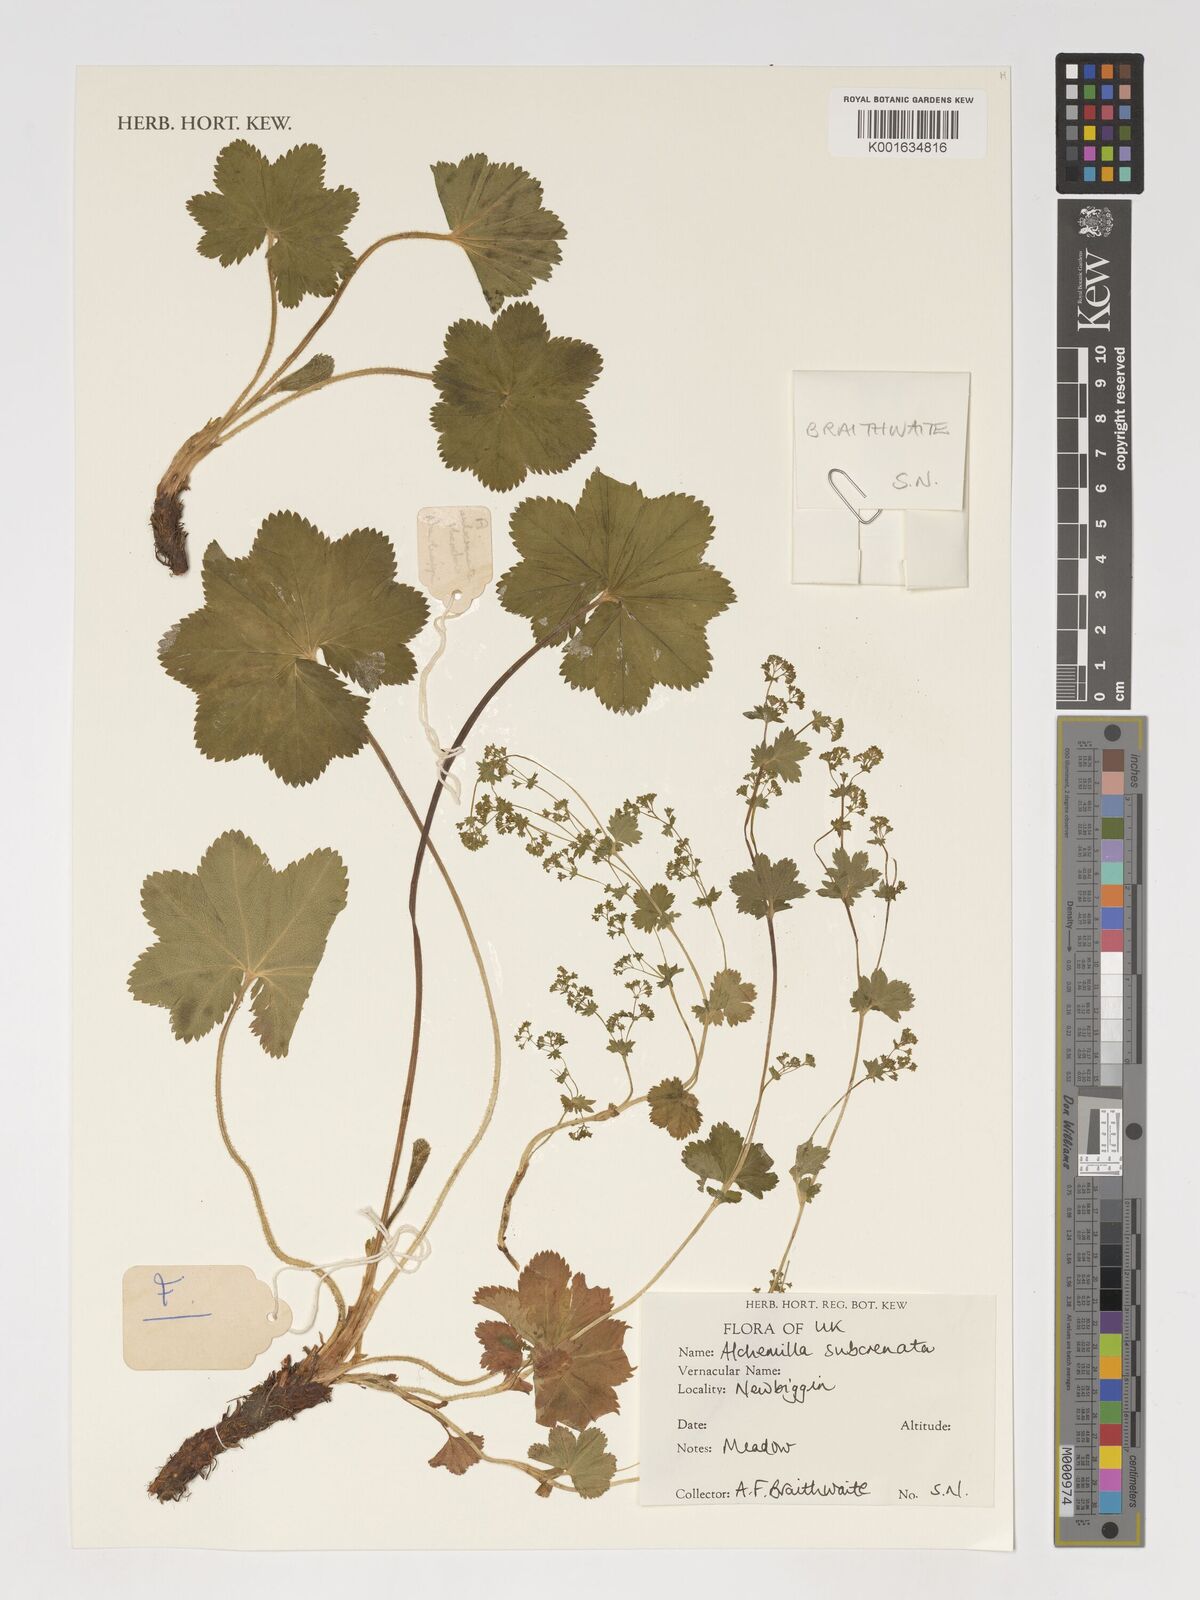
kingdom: Plantae
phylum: Tracheophyta
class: Magnoliopsida
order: Rosales
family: Rosaceae
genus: Alchemilla
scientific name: Alchemilla subcrenata
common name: Broadtooth lady's mantle
